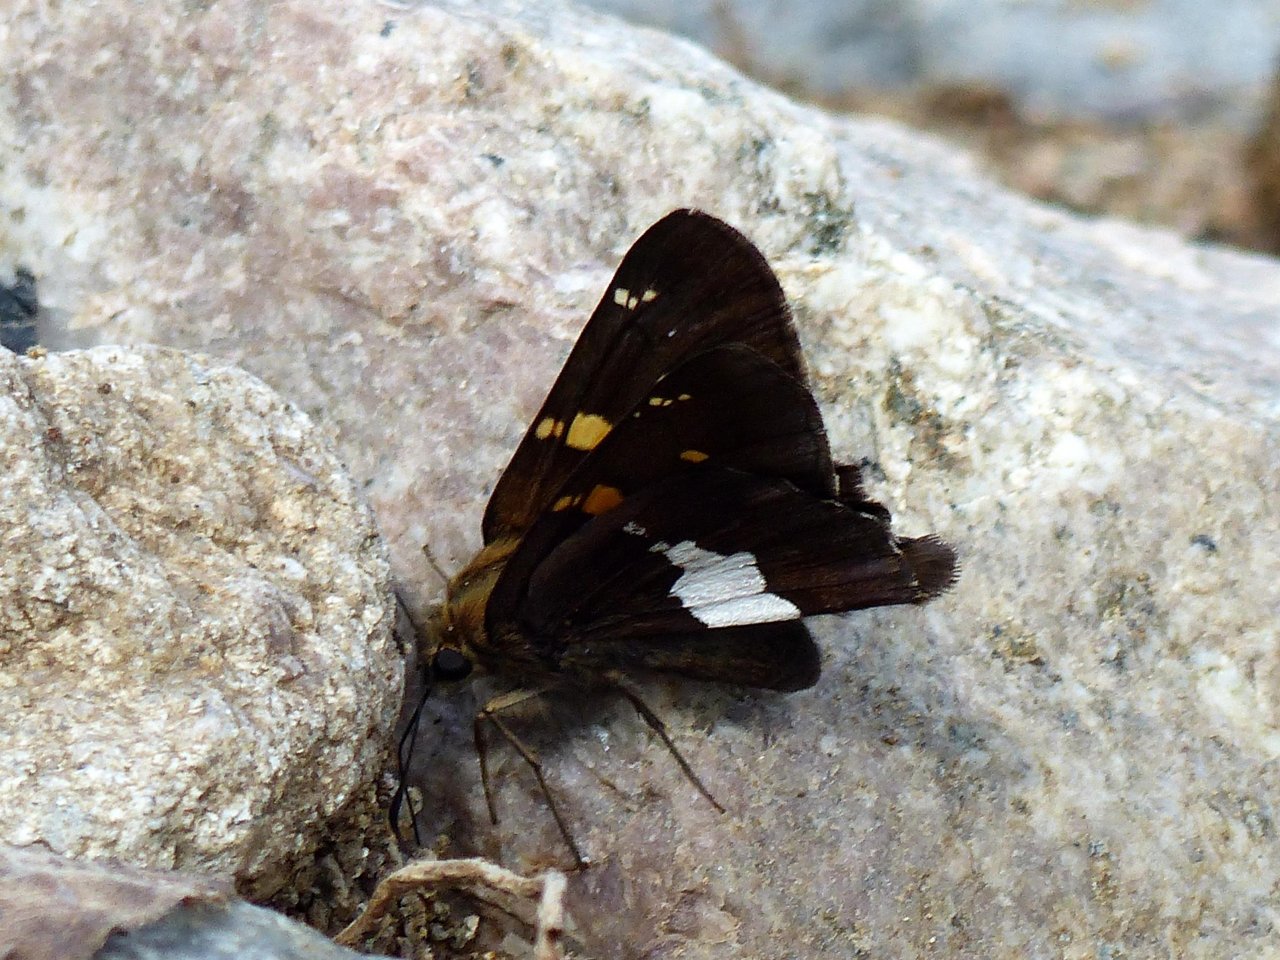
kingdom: Animalia
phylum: Arthropoda
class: Insecta
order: Lepidoptera
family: Hesperiidae
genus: Epargyreus
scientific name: Epargyreus clarus
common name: Silver-spotted Skipper
